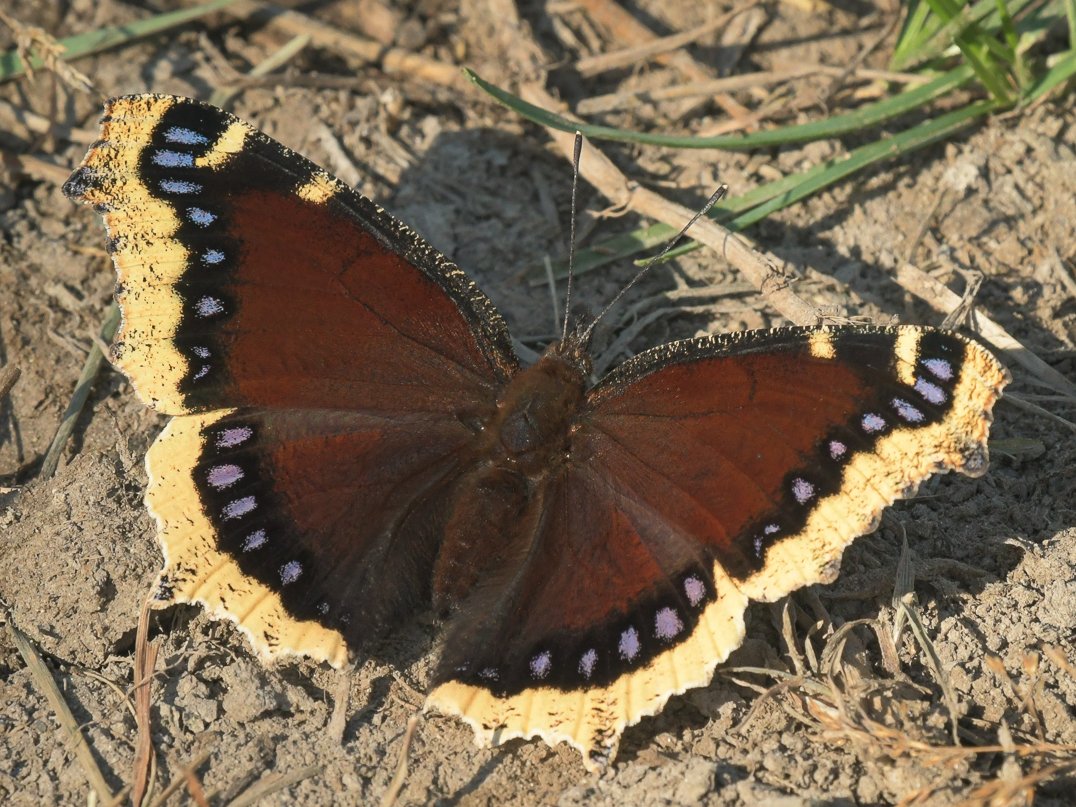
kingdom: Animalia
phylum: Arthropoda
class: Insecta
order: Lepidoptera
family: Nymphalidae
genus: Nymphalis
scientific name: Nymphalis antiopa
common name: Mourning Cloak
